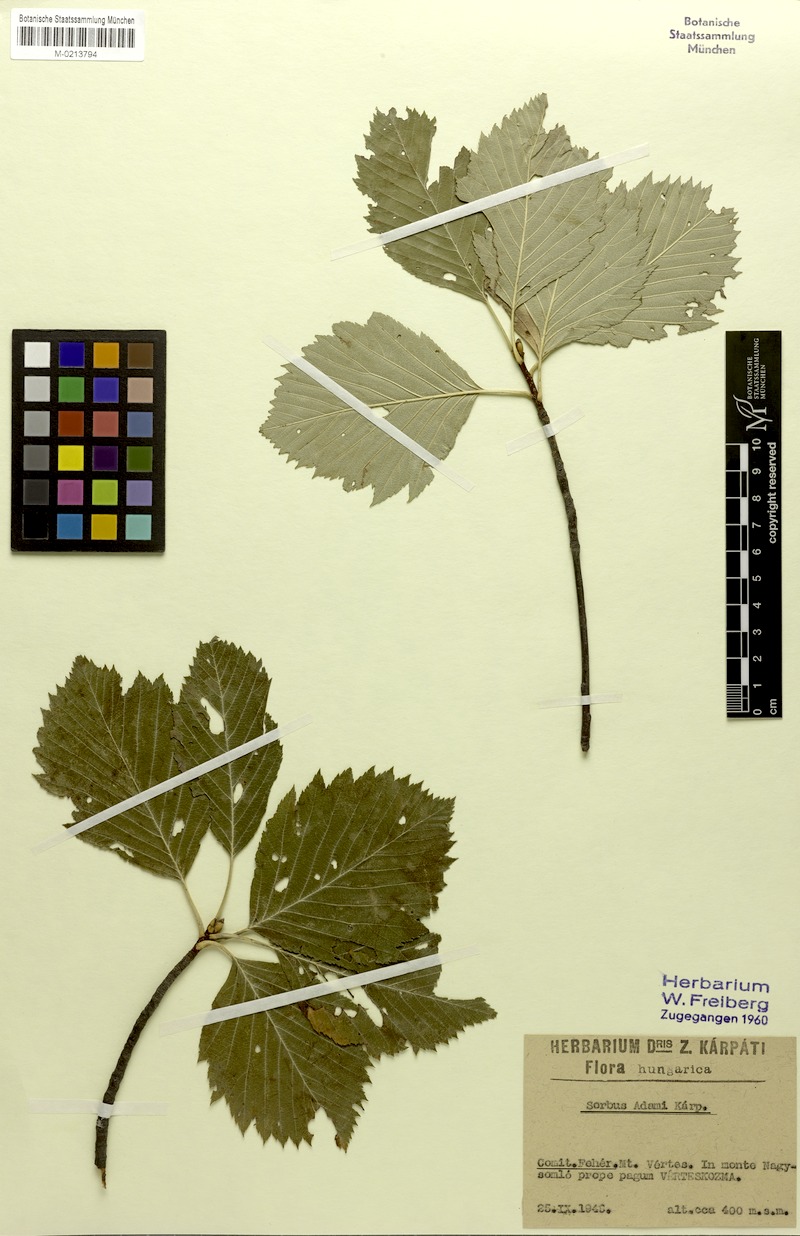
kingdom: Plantae
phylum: Tracheophyta
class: Magnoliopsida
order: Rosales
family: Rosaceae
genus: Karpatiosorbus
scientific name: Karpatiosorbus adamii
